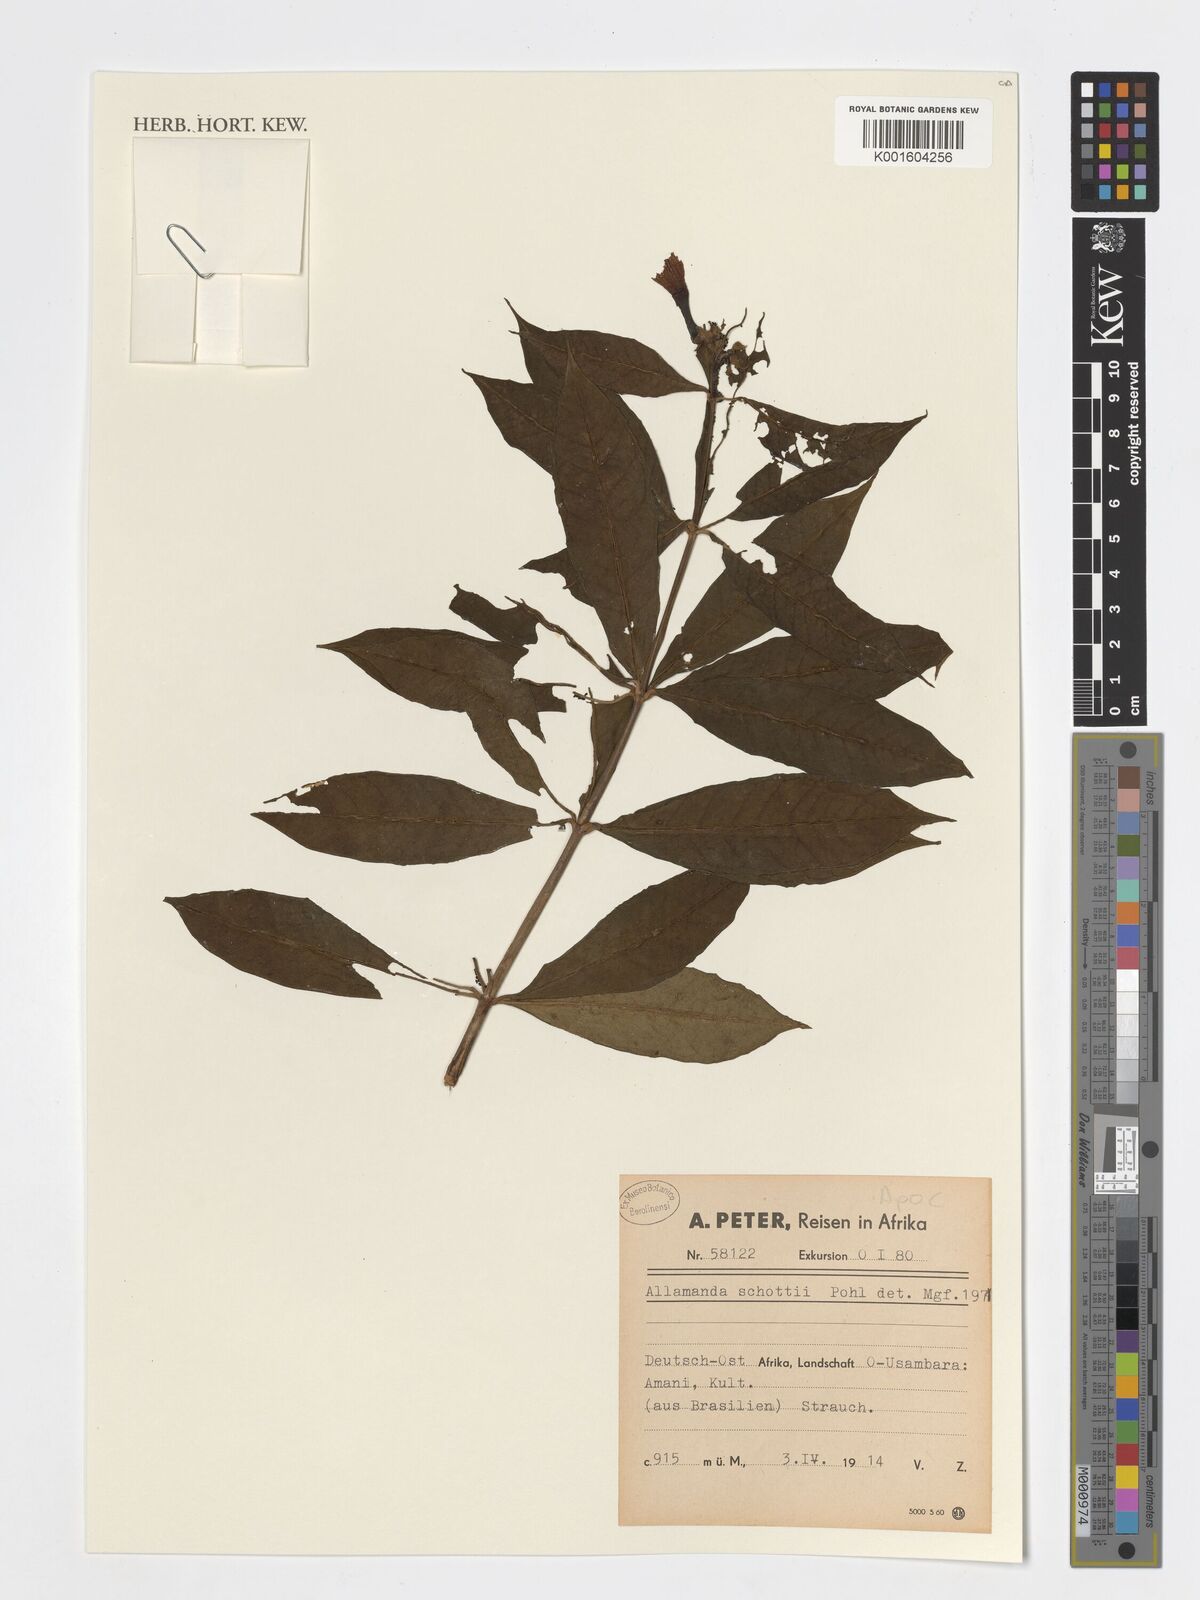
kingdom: Plantae
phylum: Tracheophyta
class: Magnoliopsida
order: Gentianales
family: Apocynaceae
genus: Allamanda
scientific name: Allamanda schottii
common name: Bush allamanda
